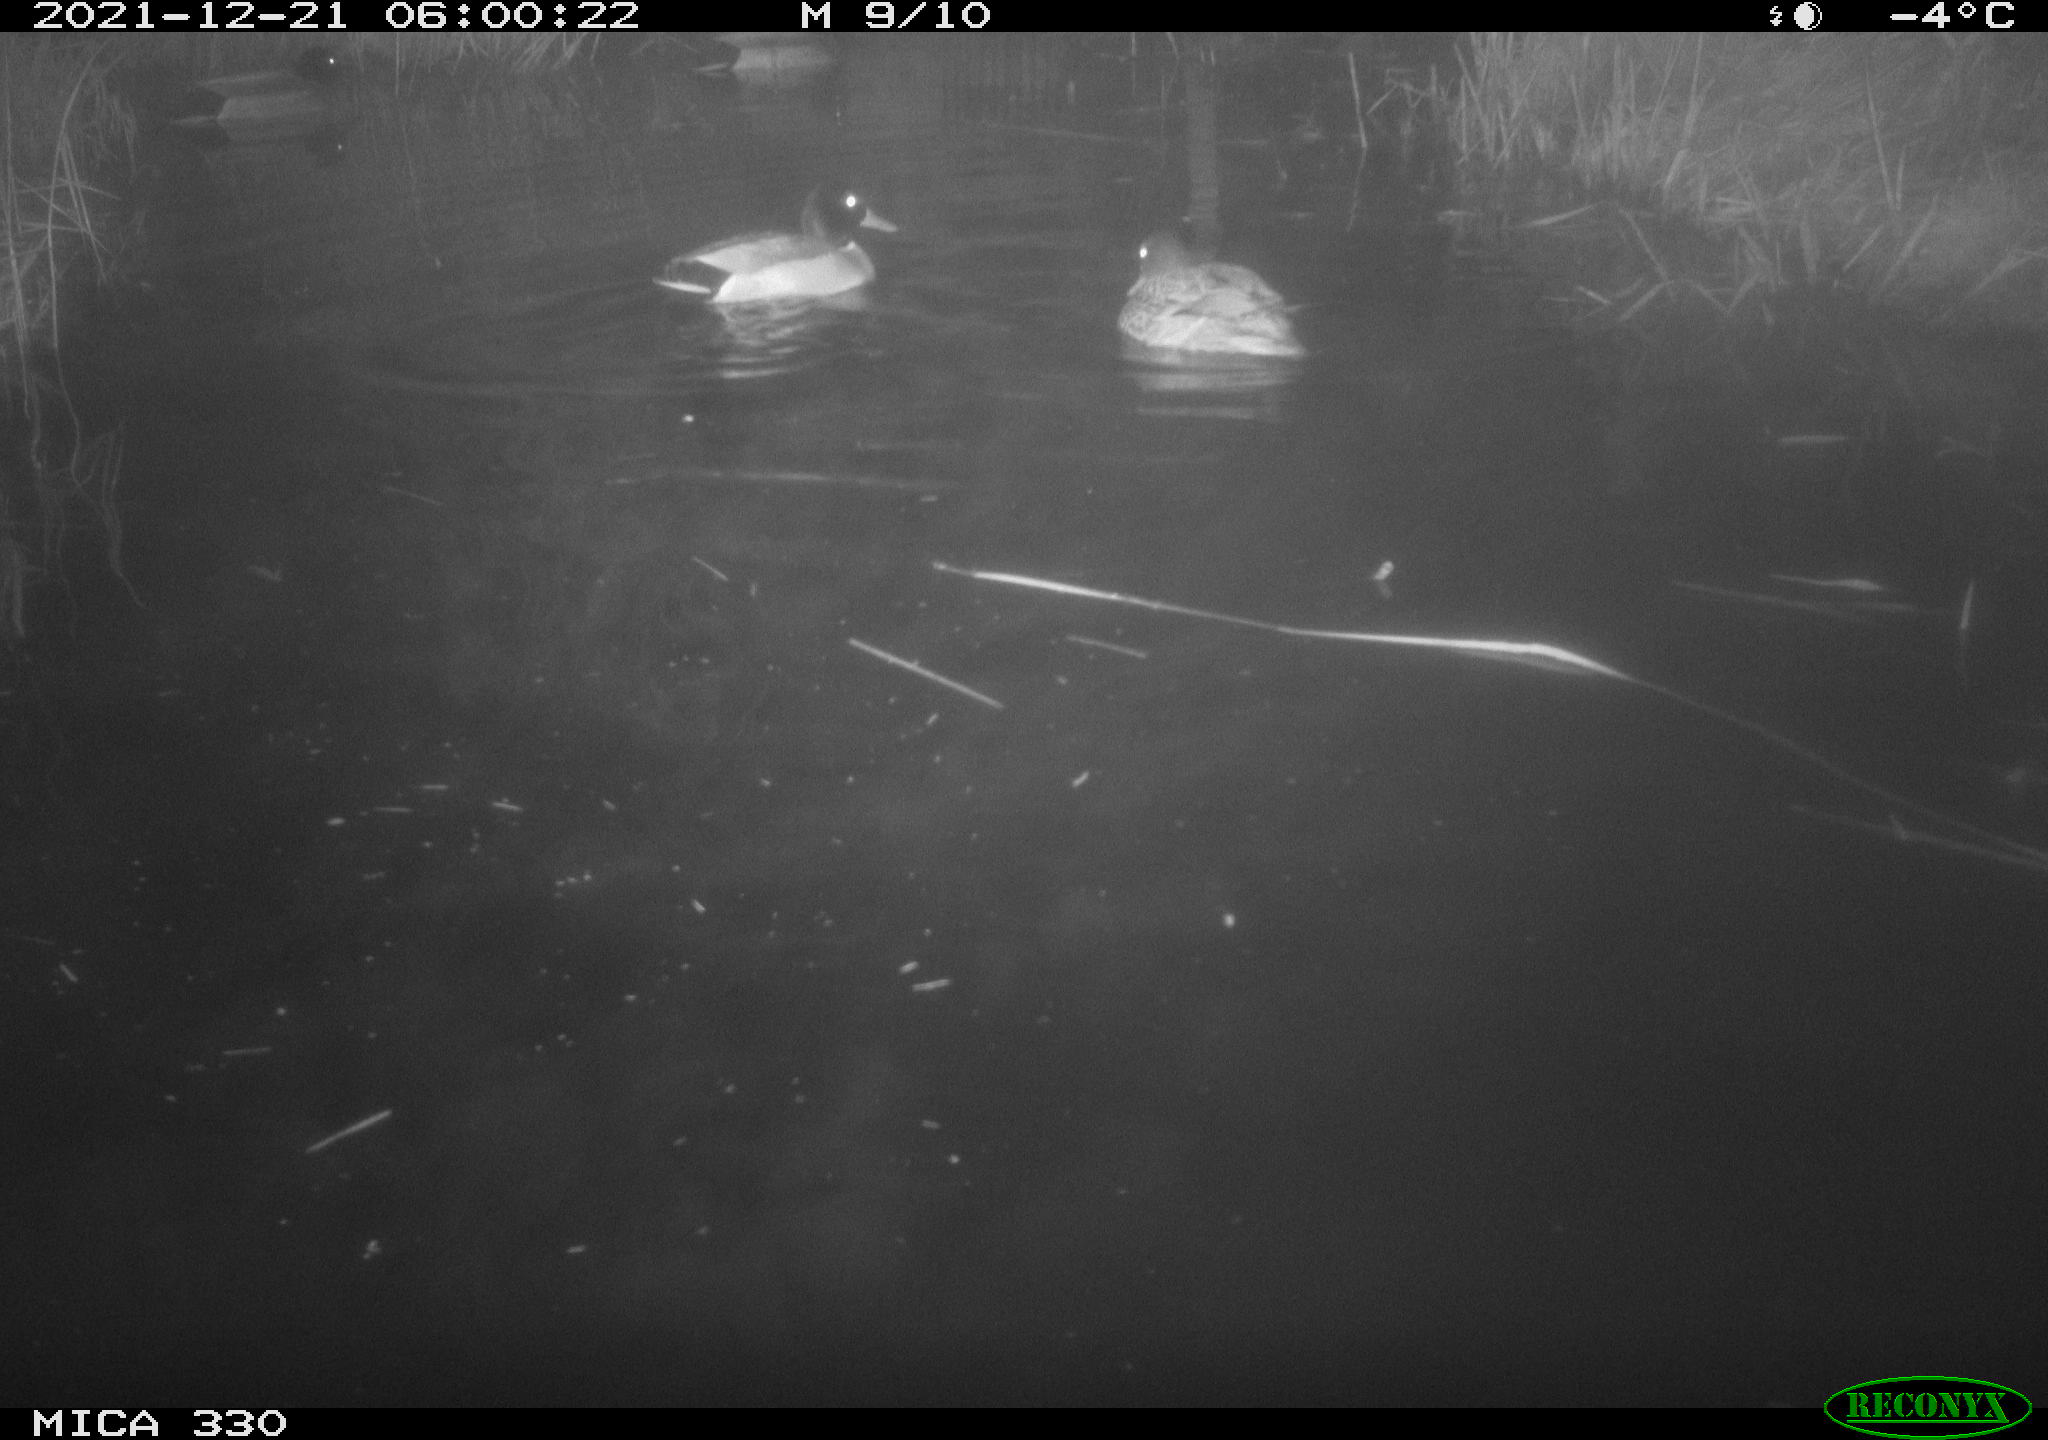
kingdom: Animalia
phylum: Chordata
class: Aves
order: Anseriformes
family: Anatidae
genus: Anas
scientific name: Anas platyrhynchos
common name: Mallard
